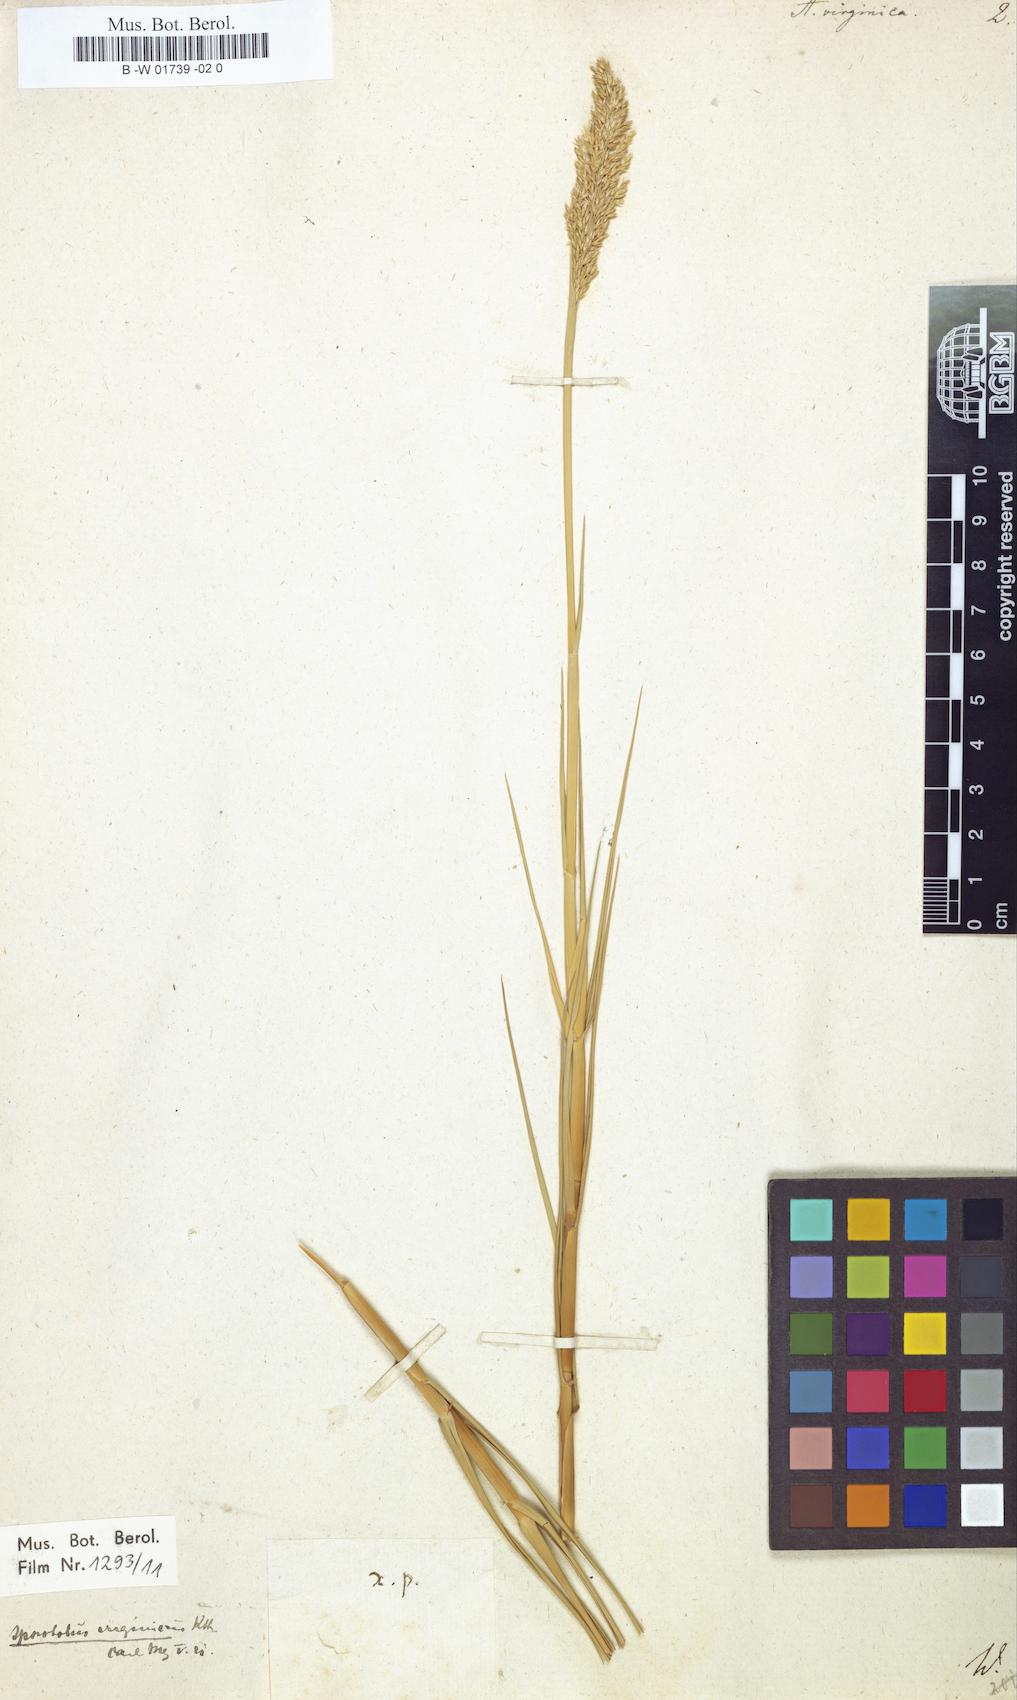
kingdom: Plantae
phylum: Tracheophyta
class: Liliopsida
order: Poales
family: Poaceae
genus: Sporobolus
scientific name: Sporobolus virginicus
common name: Beach dropseed
